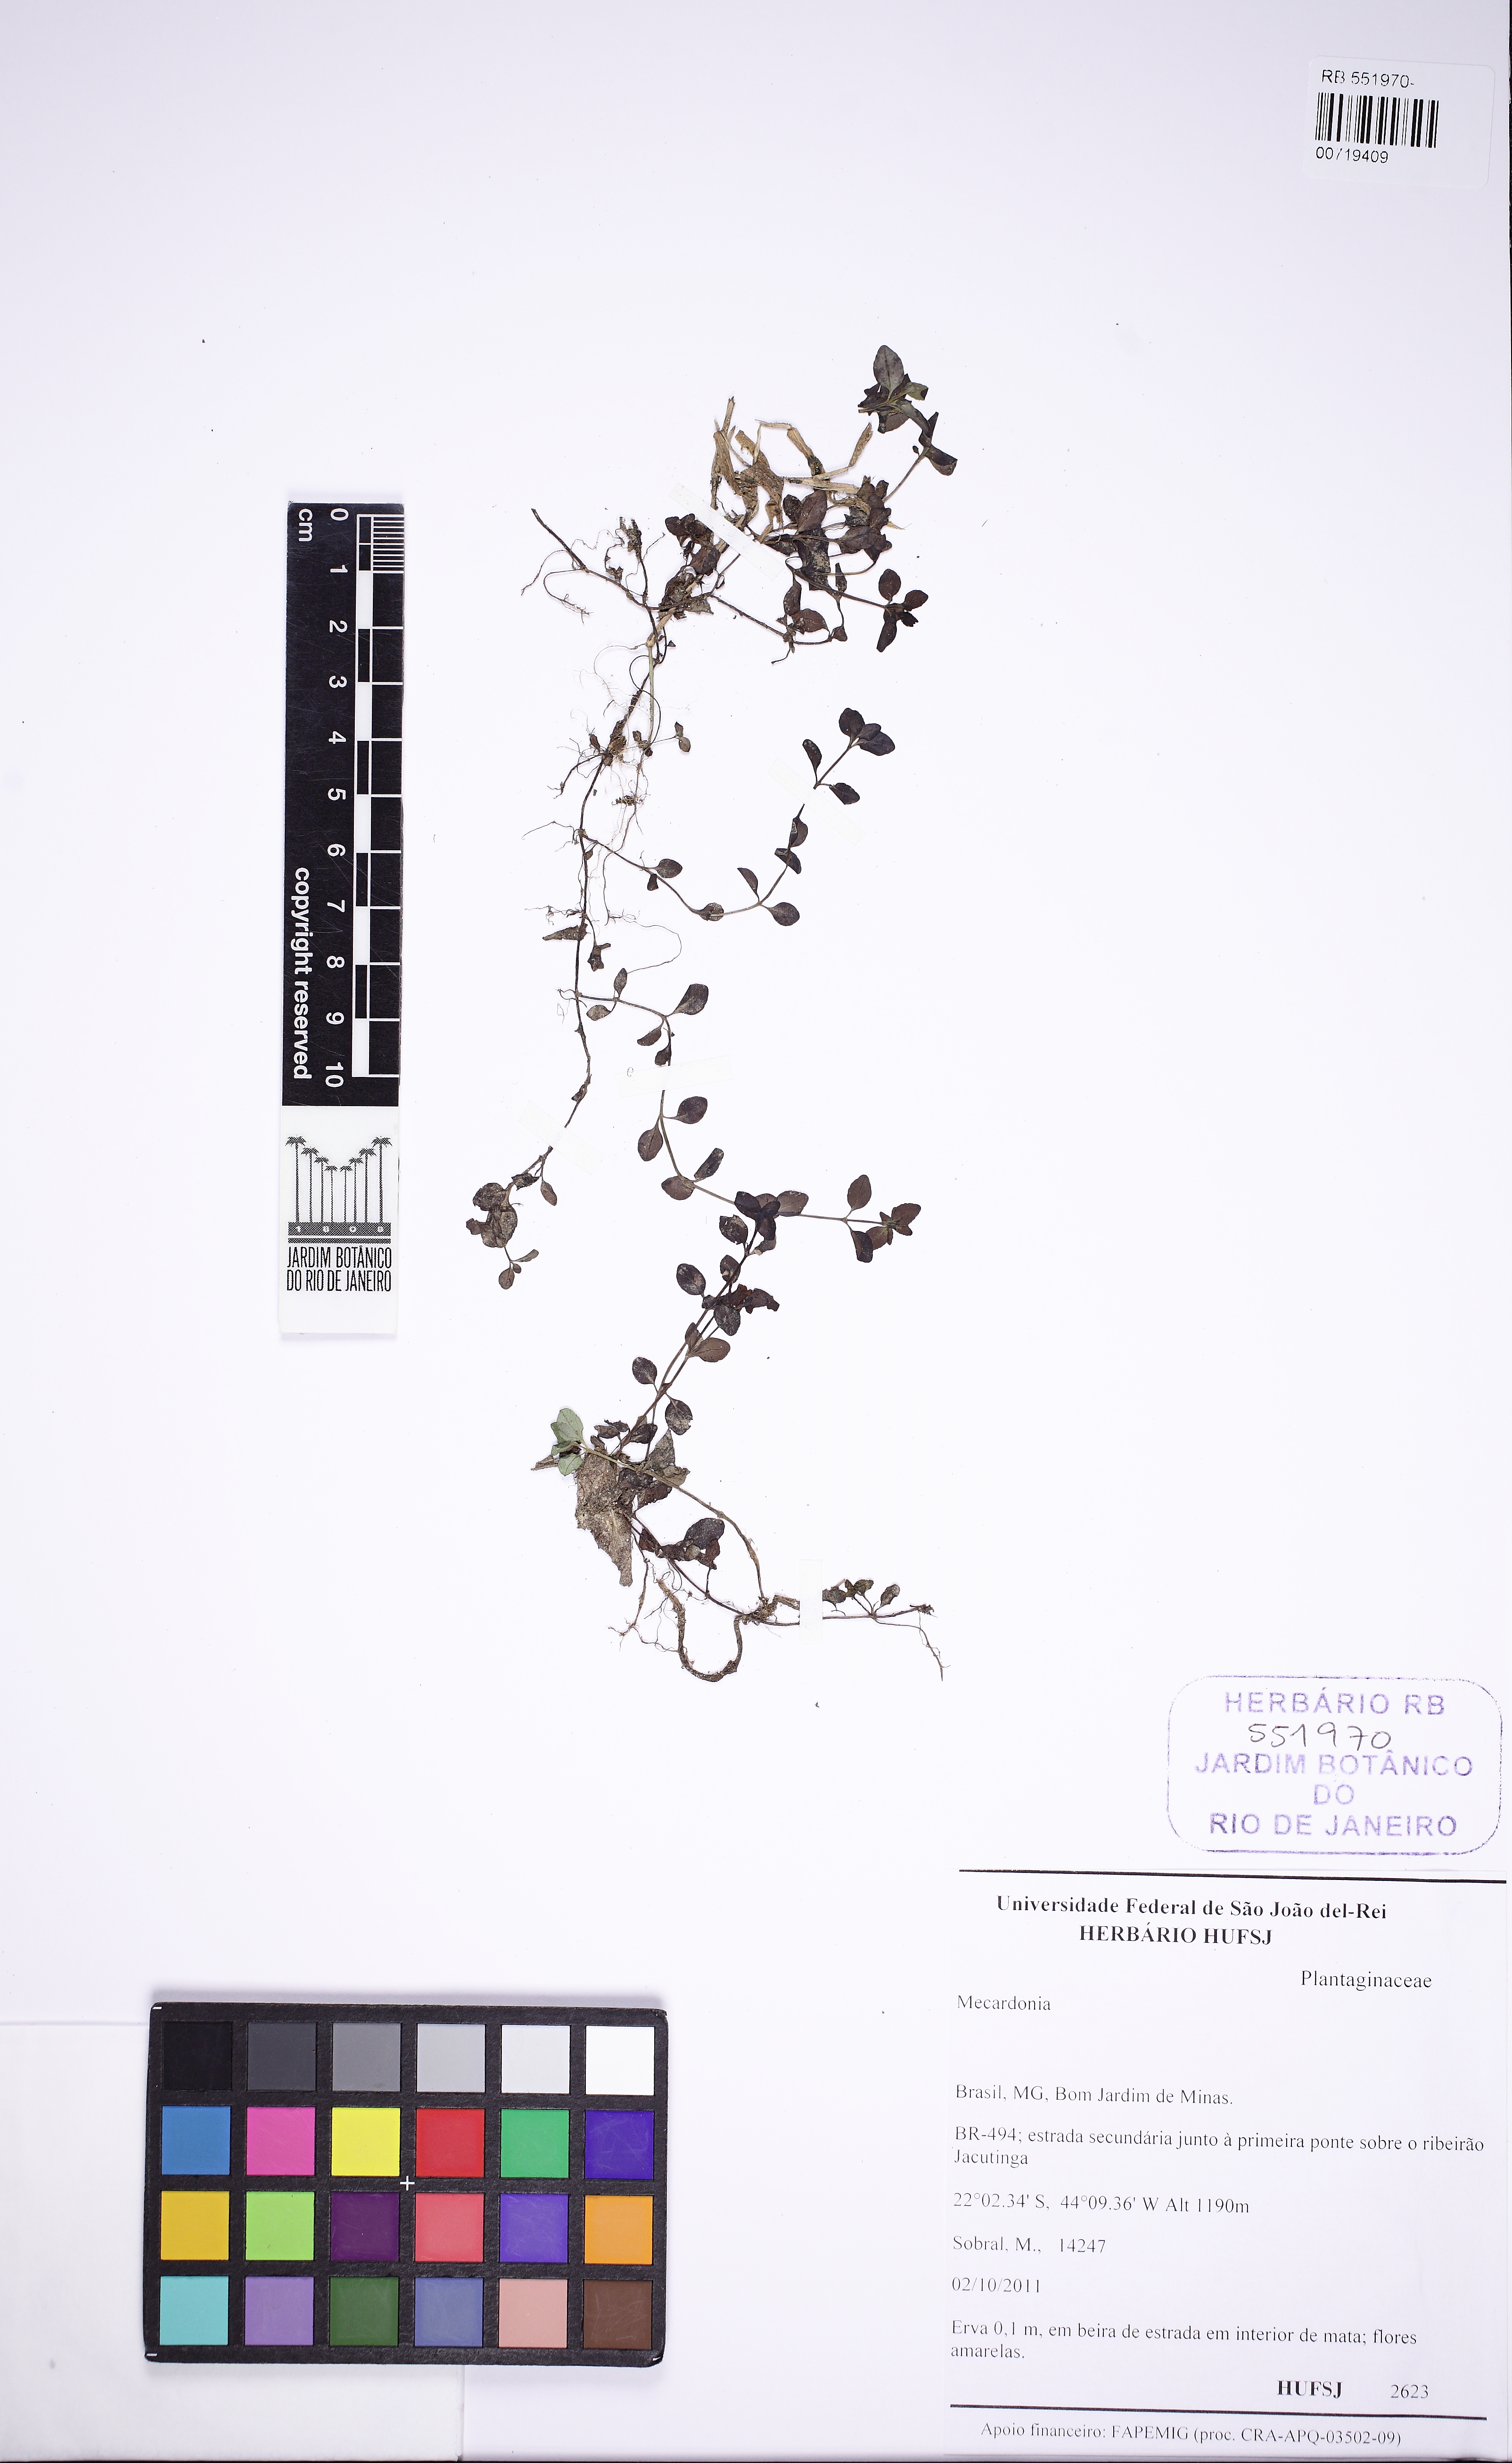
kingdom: Plantae
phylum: Tracheophyta
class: Magnoliopsida
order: Lamiales
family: Plantaginaceae
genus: Mecardonia
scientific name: Mecardonia procumbens
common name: Baby jump-up
